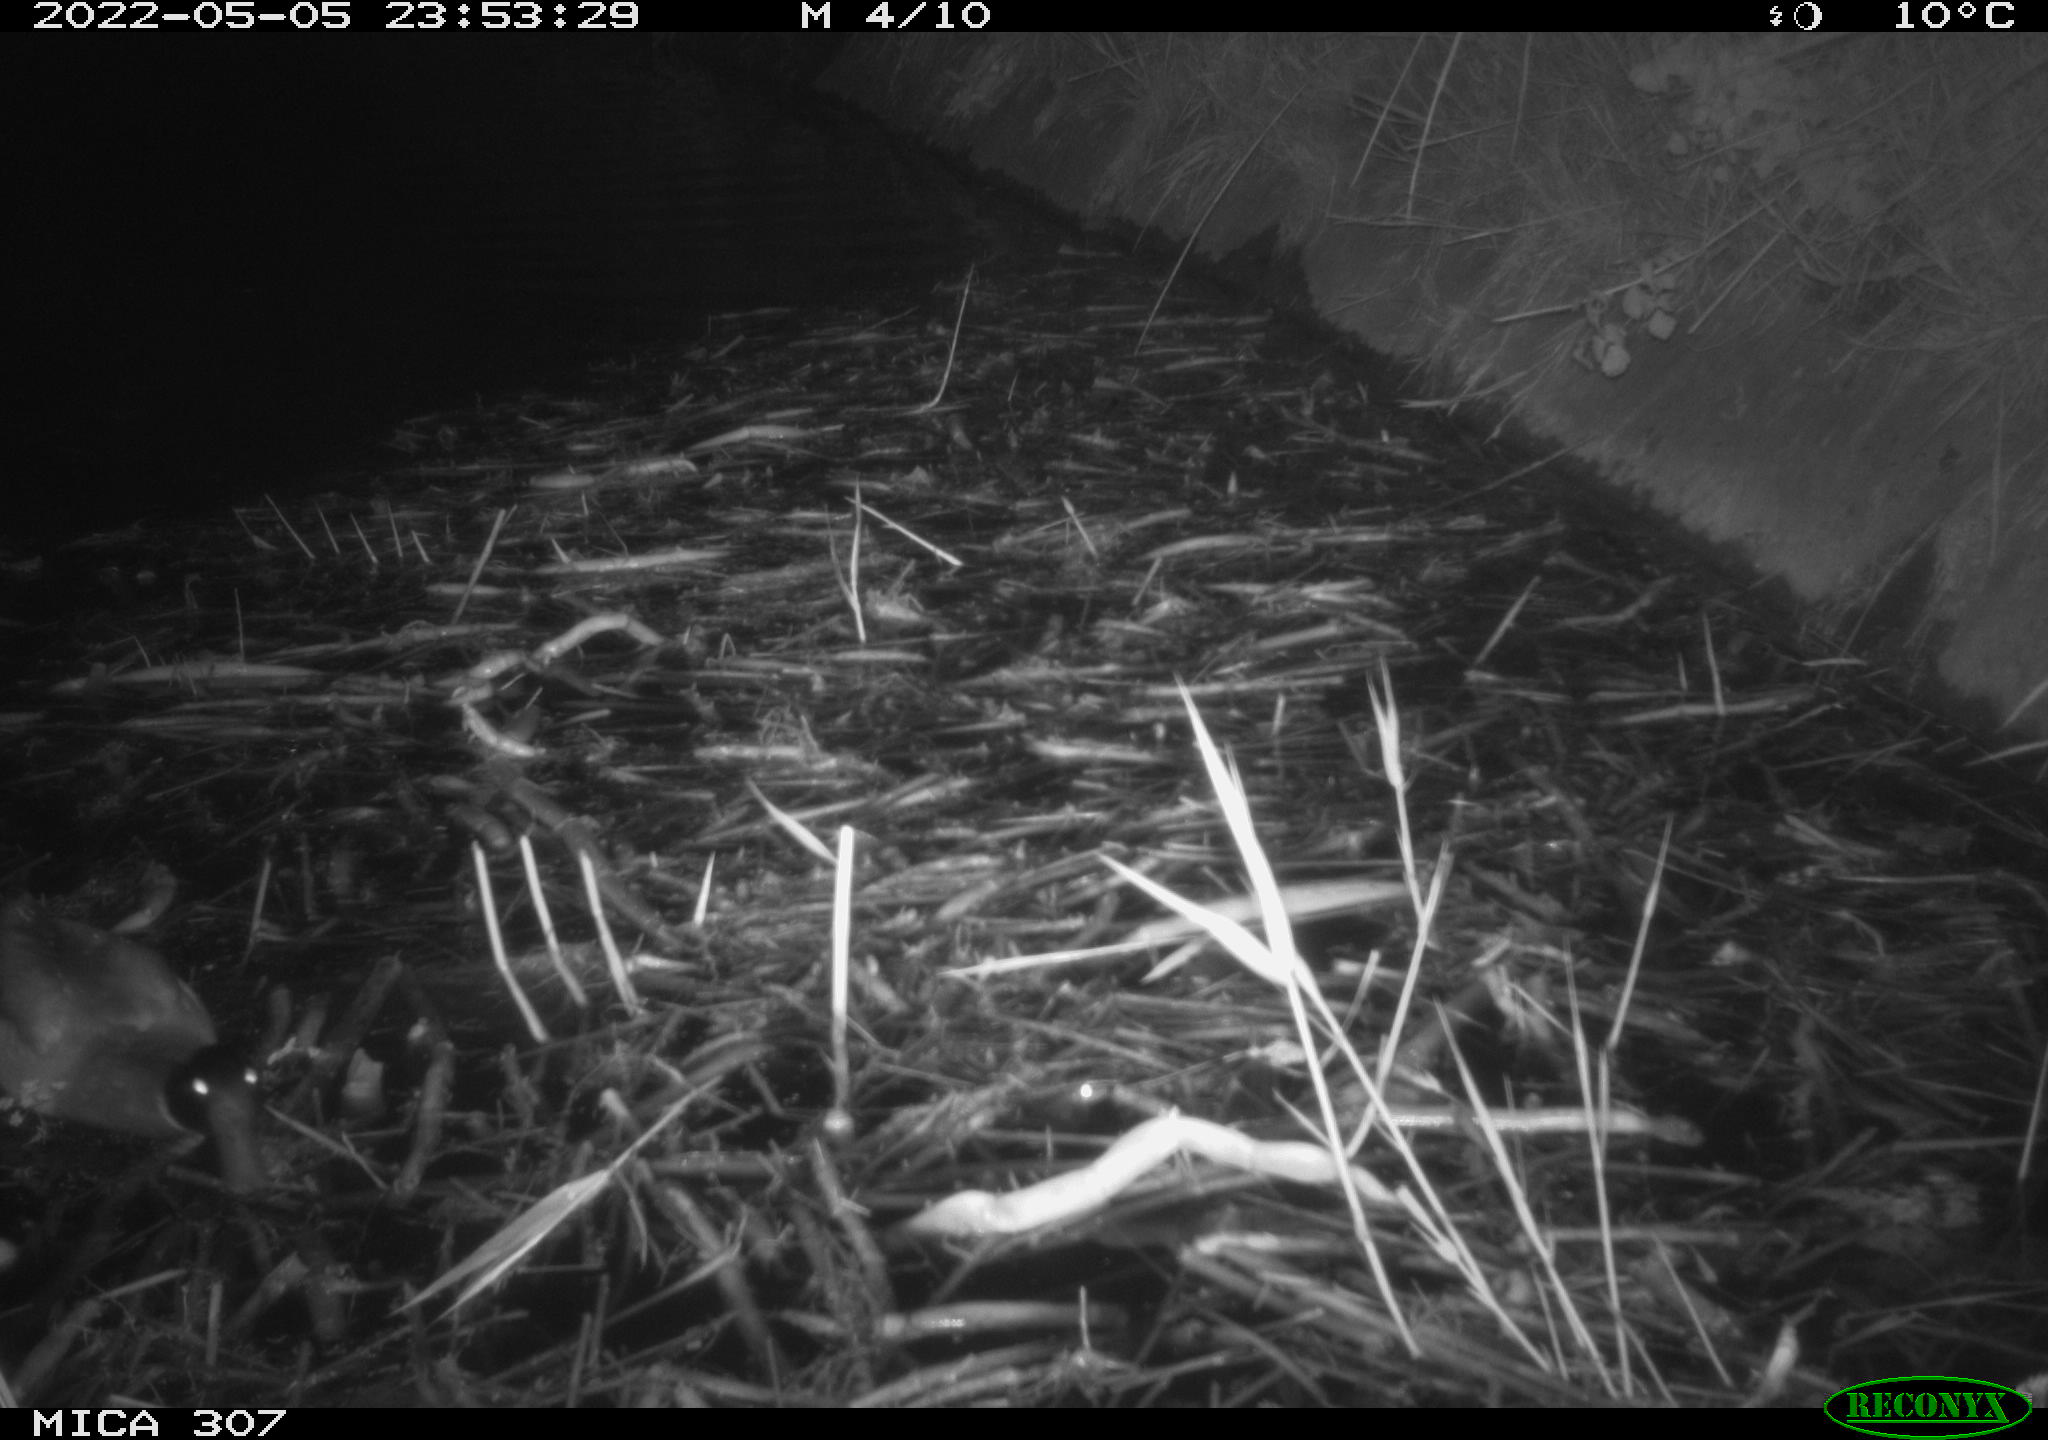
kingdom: Animalia
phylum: Chordata
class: Aves
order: Anseriformes
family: Anatidae
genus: Anas
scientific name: Anas platyrhynchos
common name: Mallard
